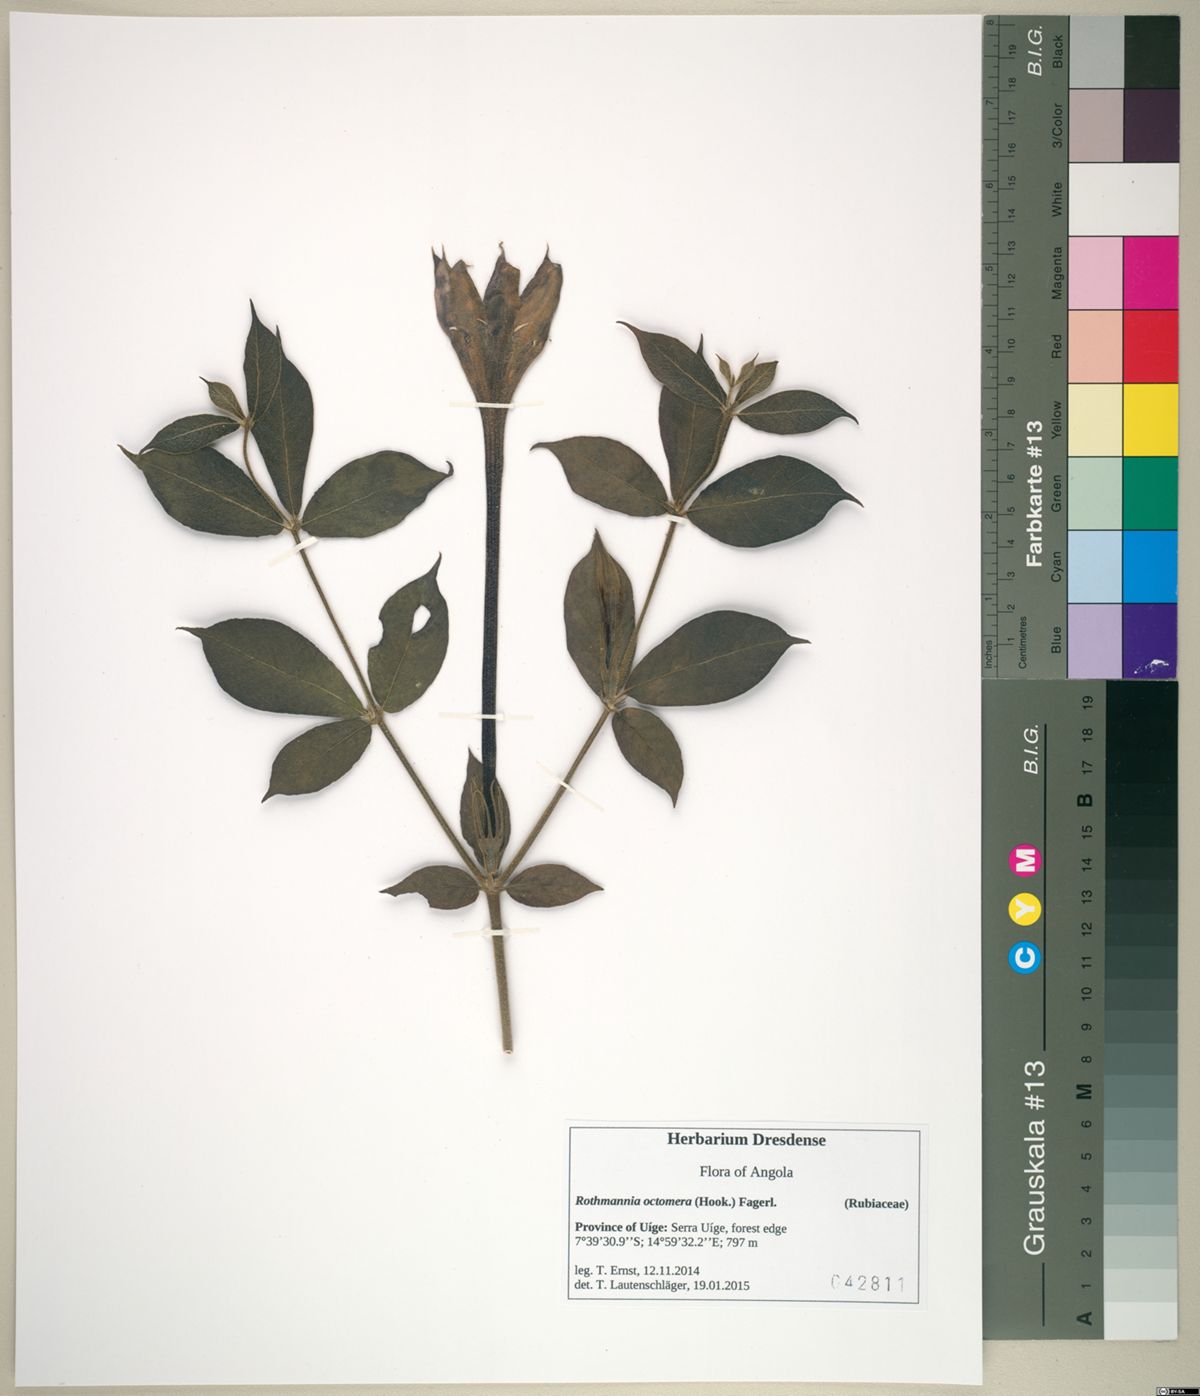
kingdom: Plantae
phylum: Tracheophyta
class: Magnoliopsida
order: Gentianales
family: Rubiaceae
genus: Rothmannia
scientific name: Rothmannia octomera
